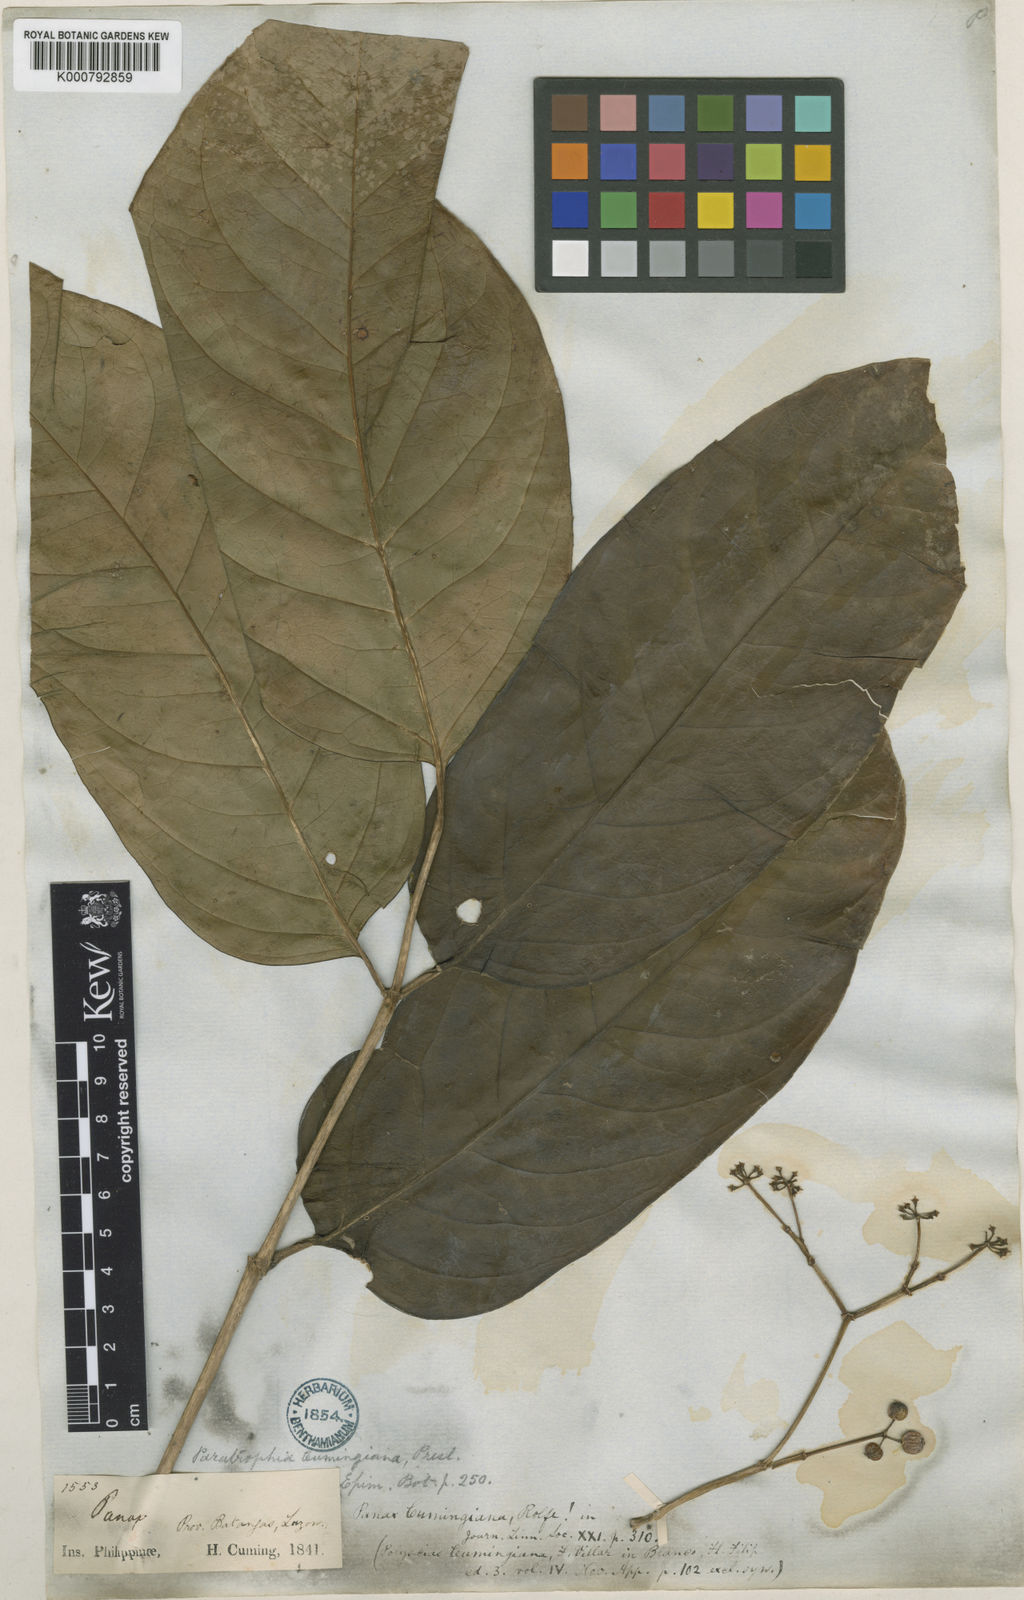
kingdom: Plantae
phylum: Tracheophyta
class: Magnoliopsida
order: Apiales
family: Araliaceae
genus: Polyscias
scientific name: Polyscias cumingiana
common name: Fern-leaf aralia
